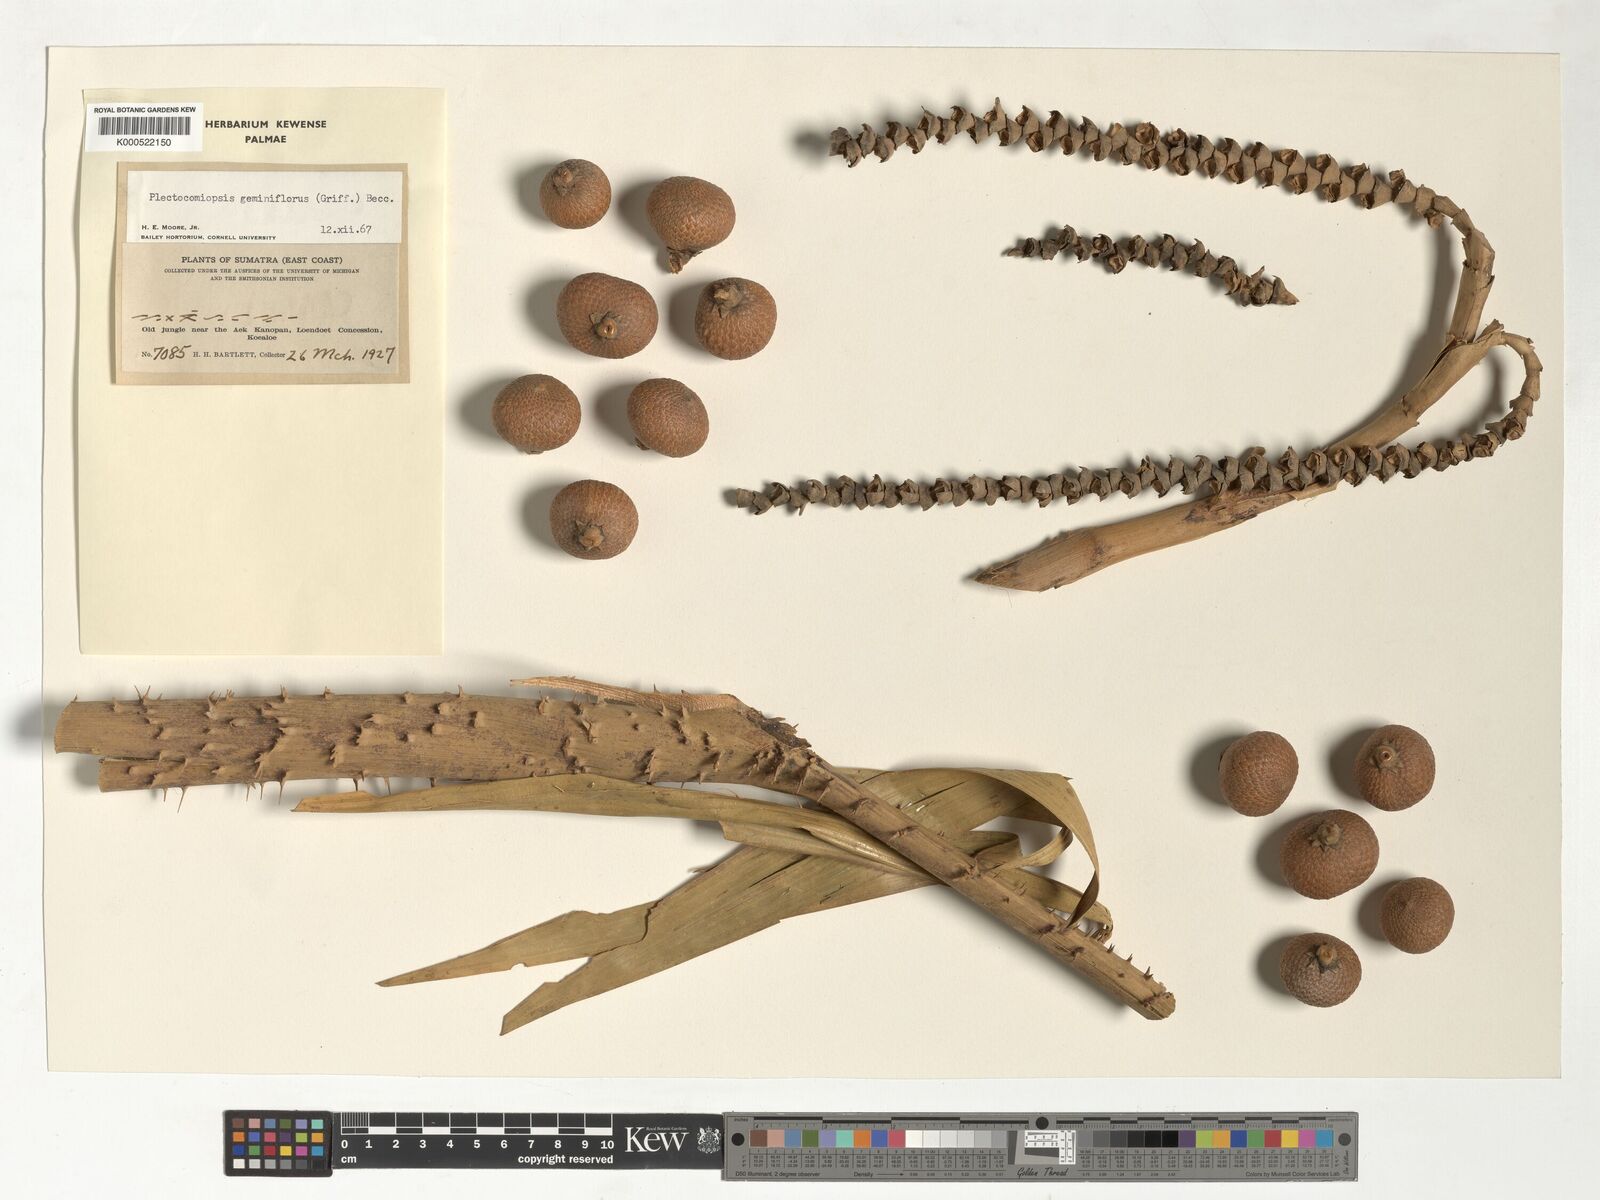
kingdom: Plantae
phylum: Tracheophyta
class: Liliopsida
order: Arecales
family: Arecaceae
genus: Plectocomiopsis
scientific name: Plectocomiopsis geminiflora
